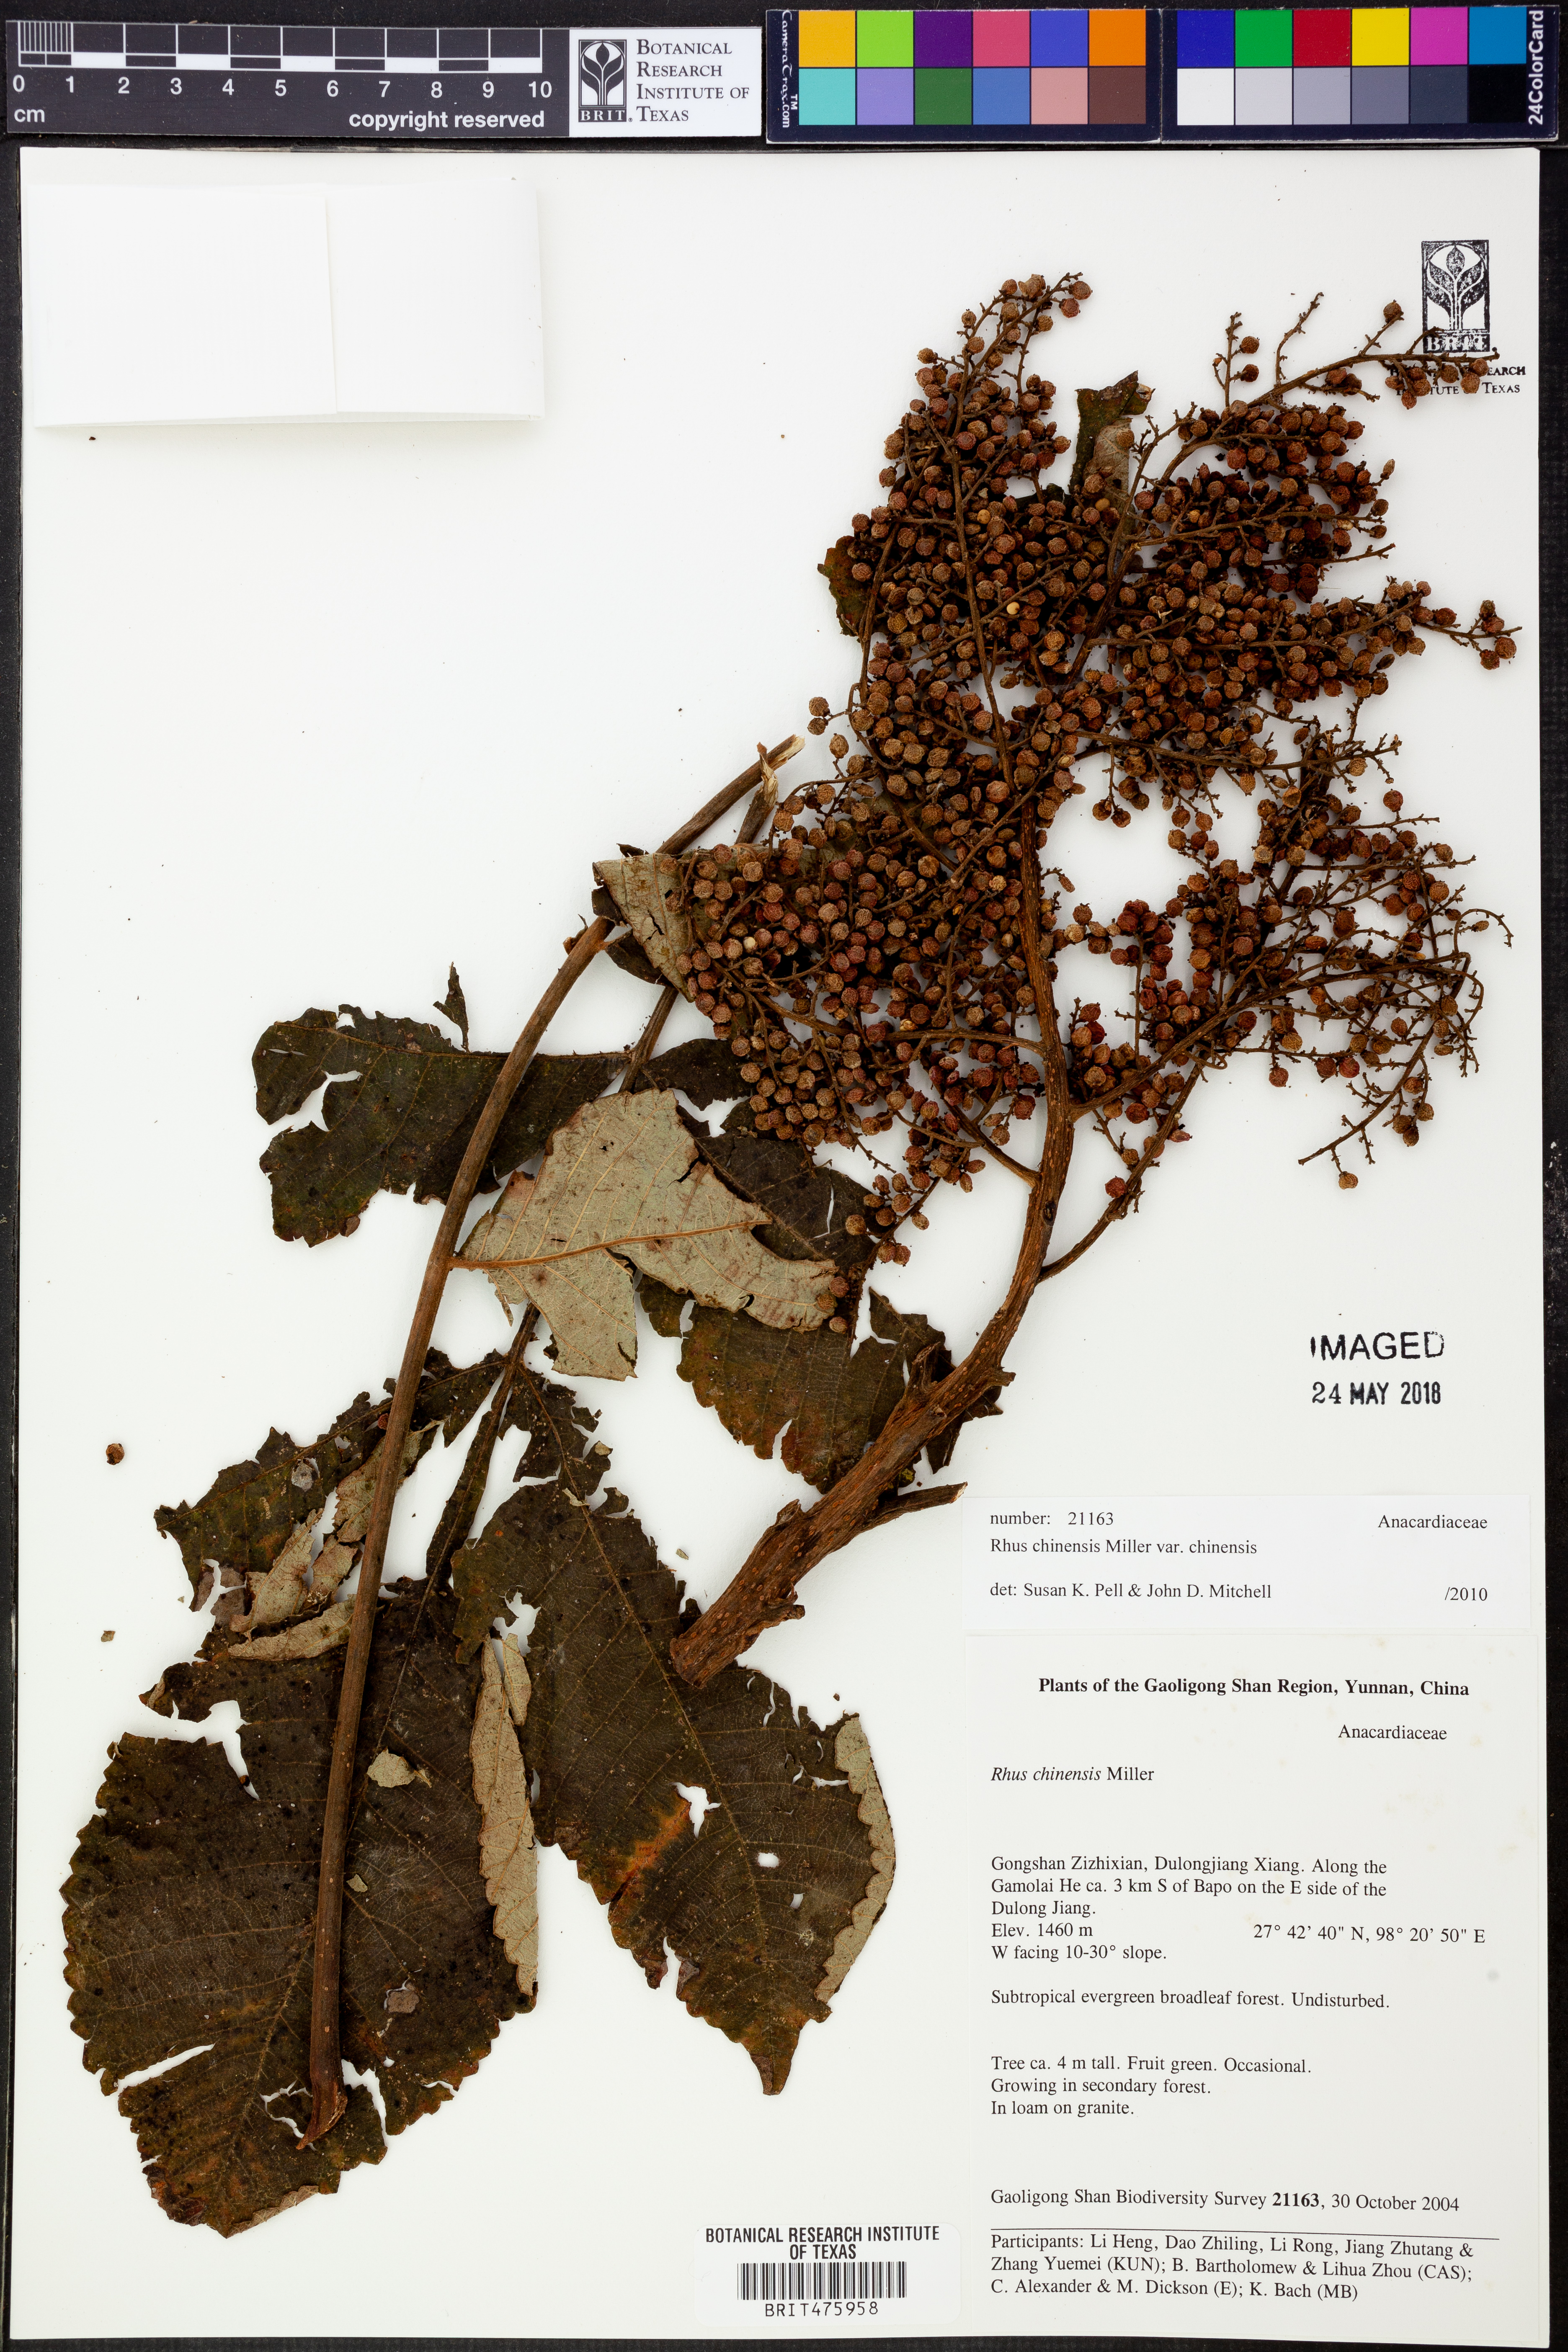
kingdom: Plantae
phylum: Tracheophyta
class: Magnoliopsida
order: Sapindales
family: Anacardiaceae
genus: Rhus
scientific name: Rhus chinensis
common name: Chinese gall
